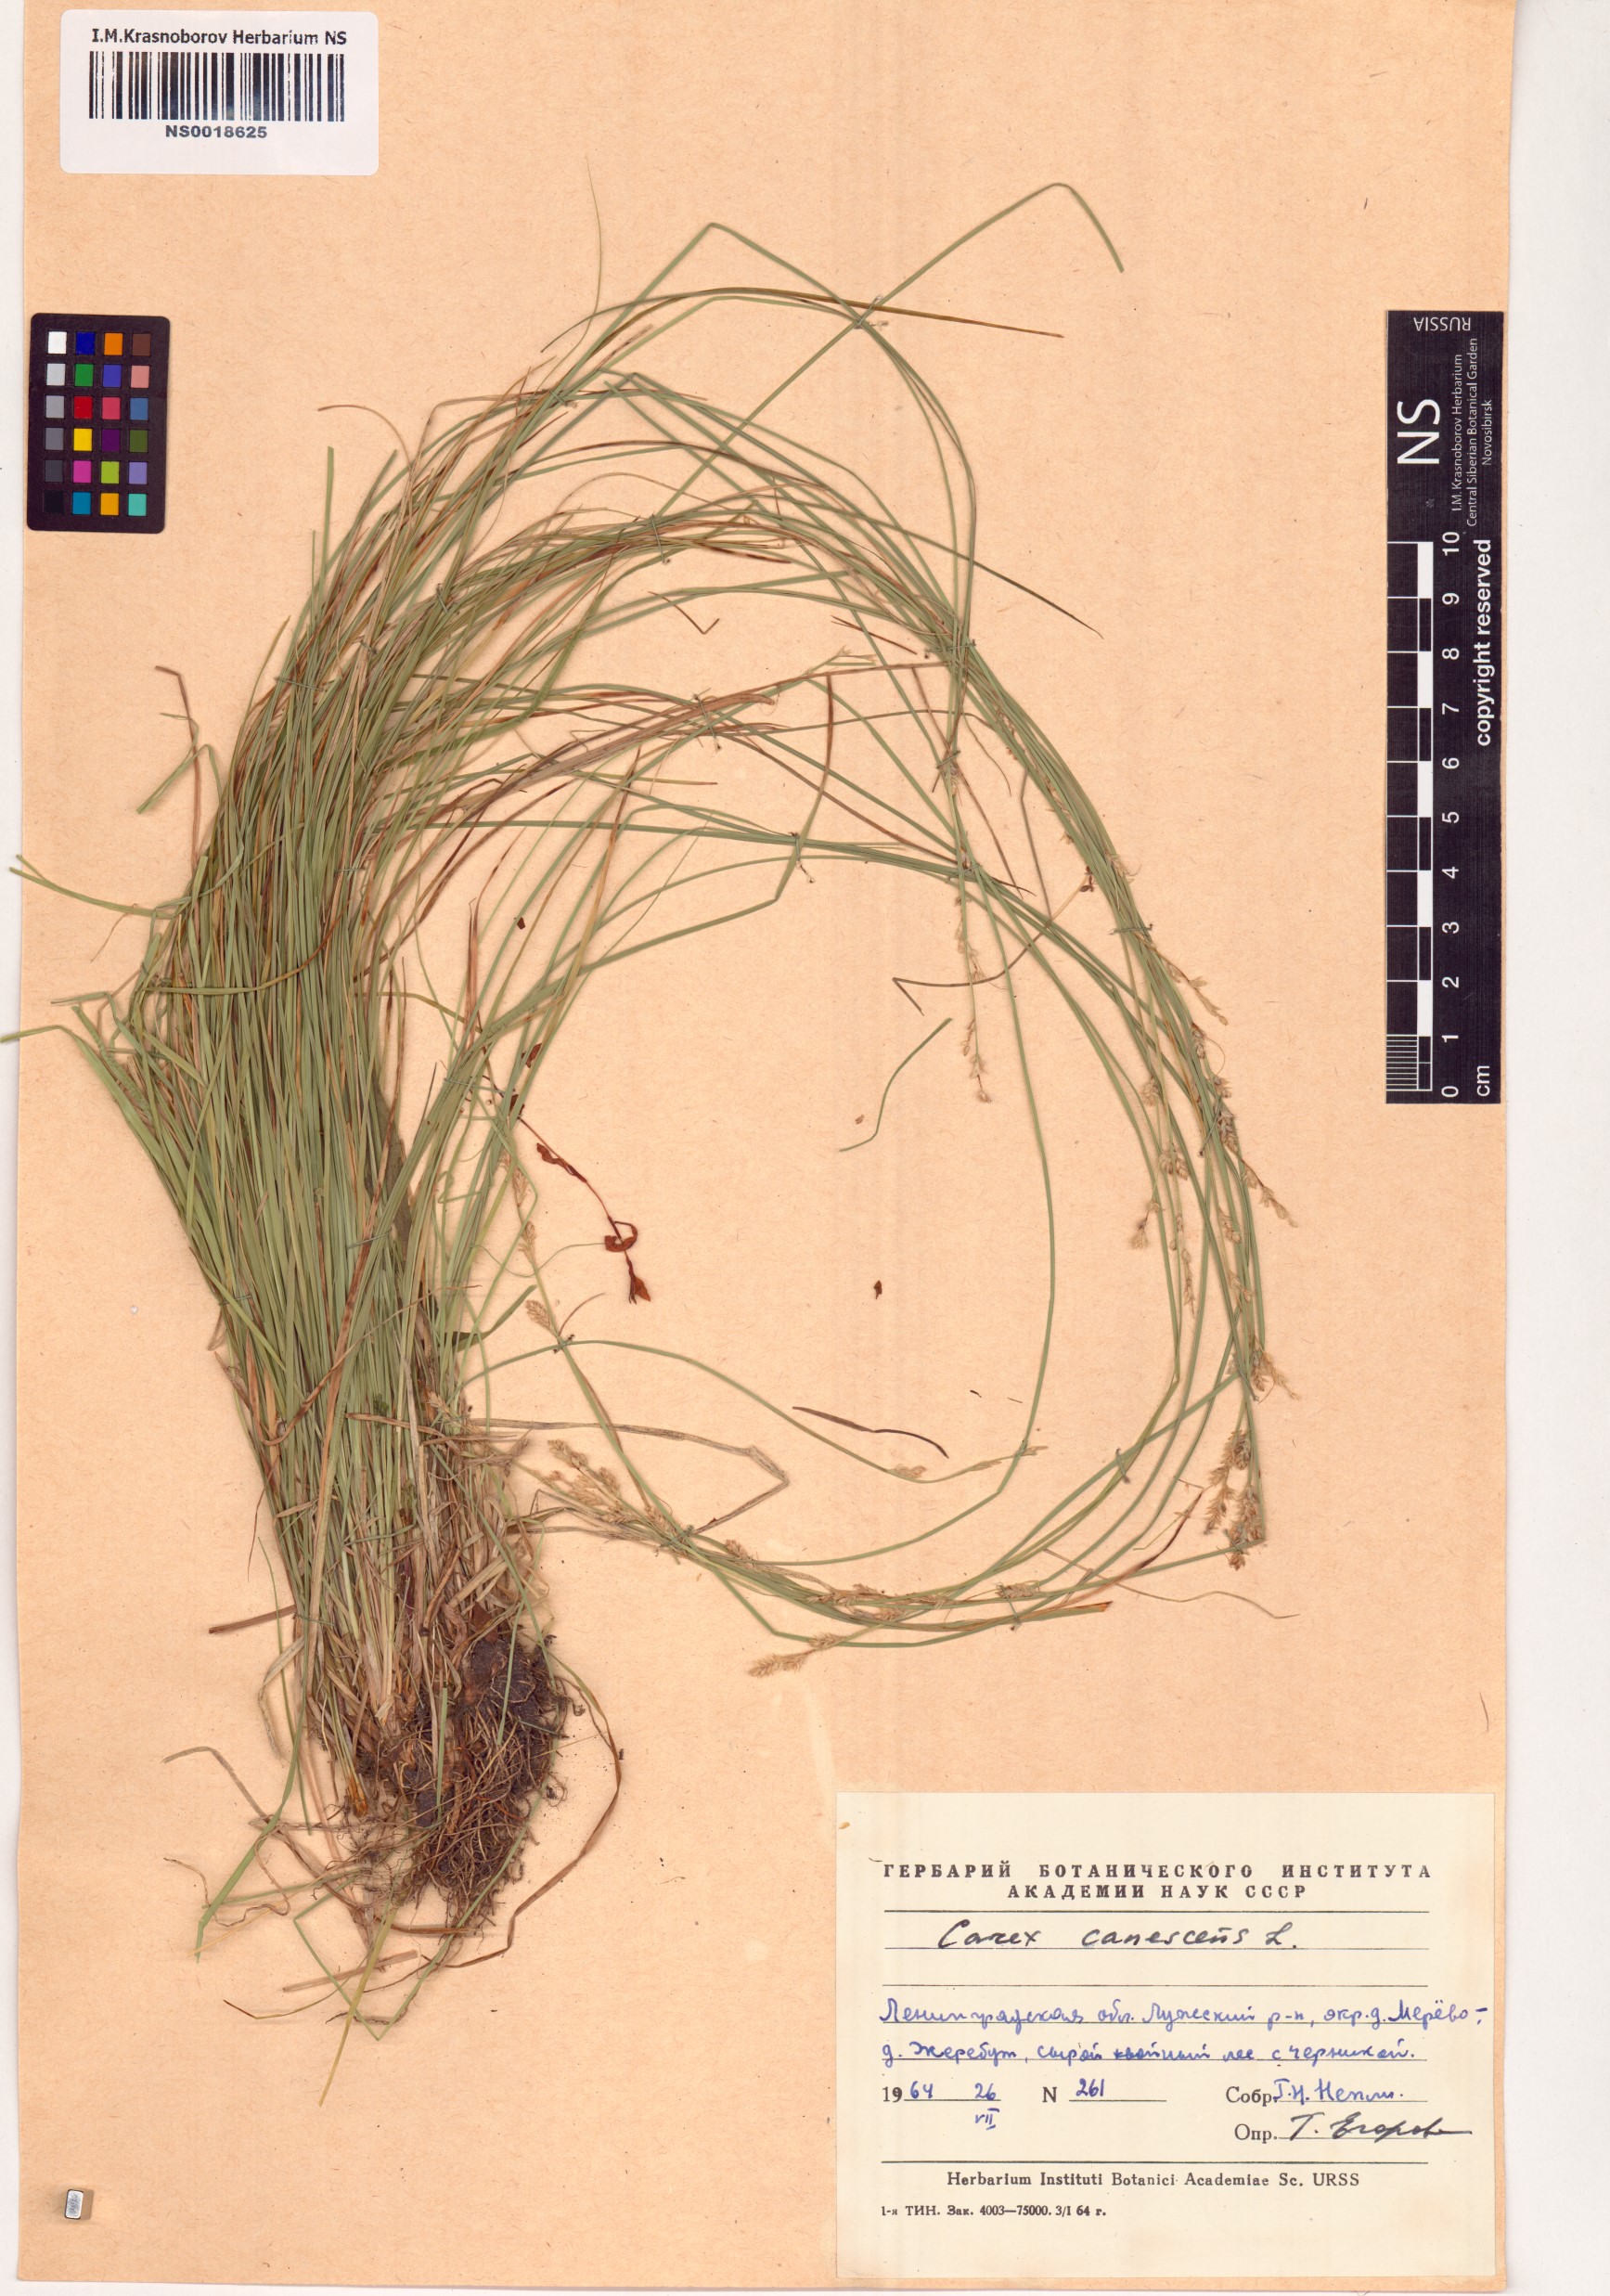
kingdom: Plantae
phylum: Tracheophyta
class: Liliopsida
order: Poales
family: Cyperaceae
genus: Carex
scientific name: Carex canescens
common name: White sedge
